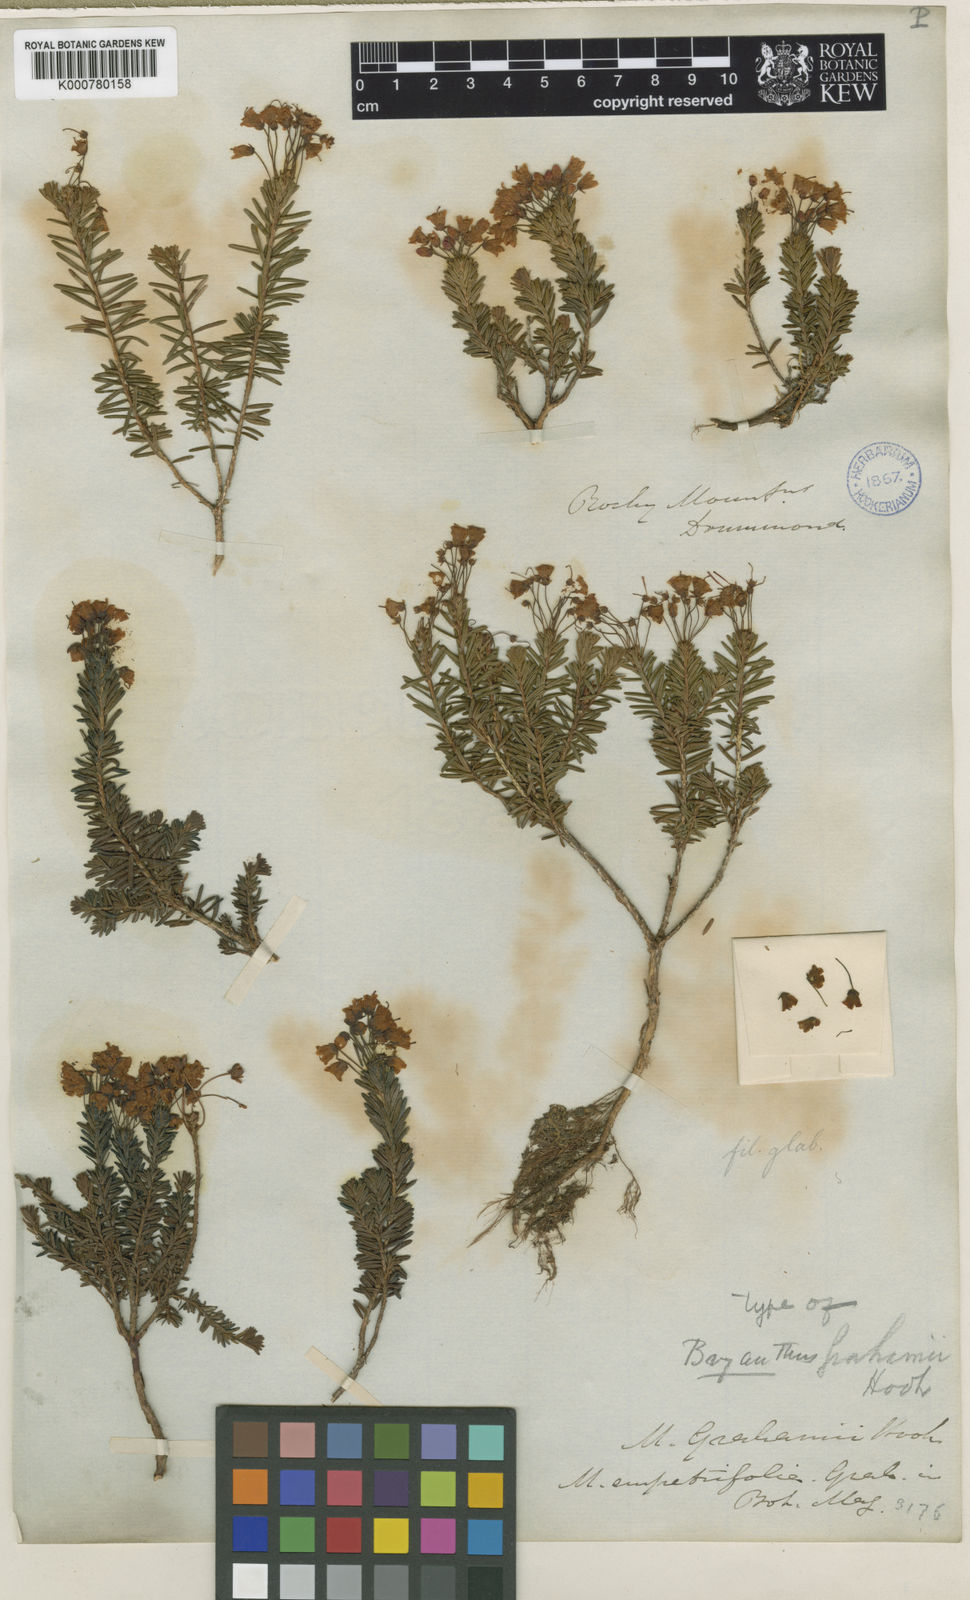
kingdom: Plantae
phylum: Tracheophyta
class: Magnoliopsida
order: Ericales
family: Ericaceae
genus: Phyllodoce
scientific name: Phyllodoce empetriformis
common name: Pink mountain heather
